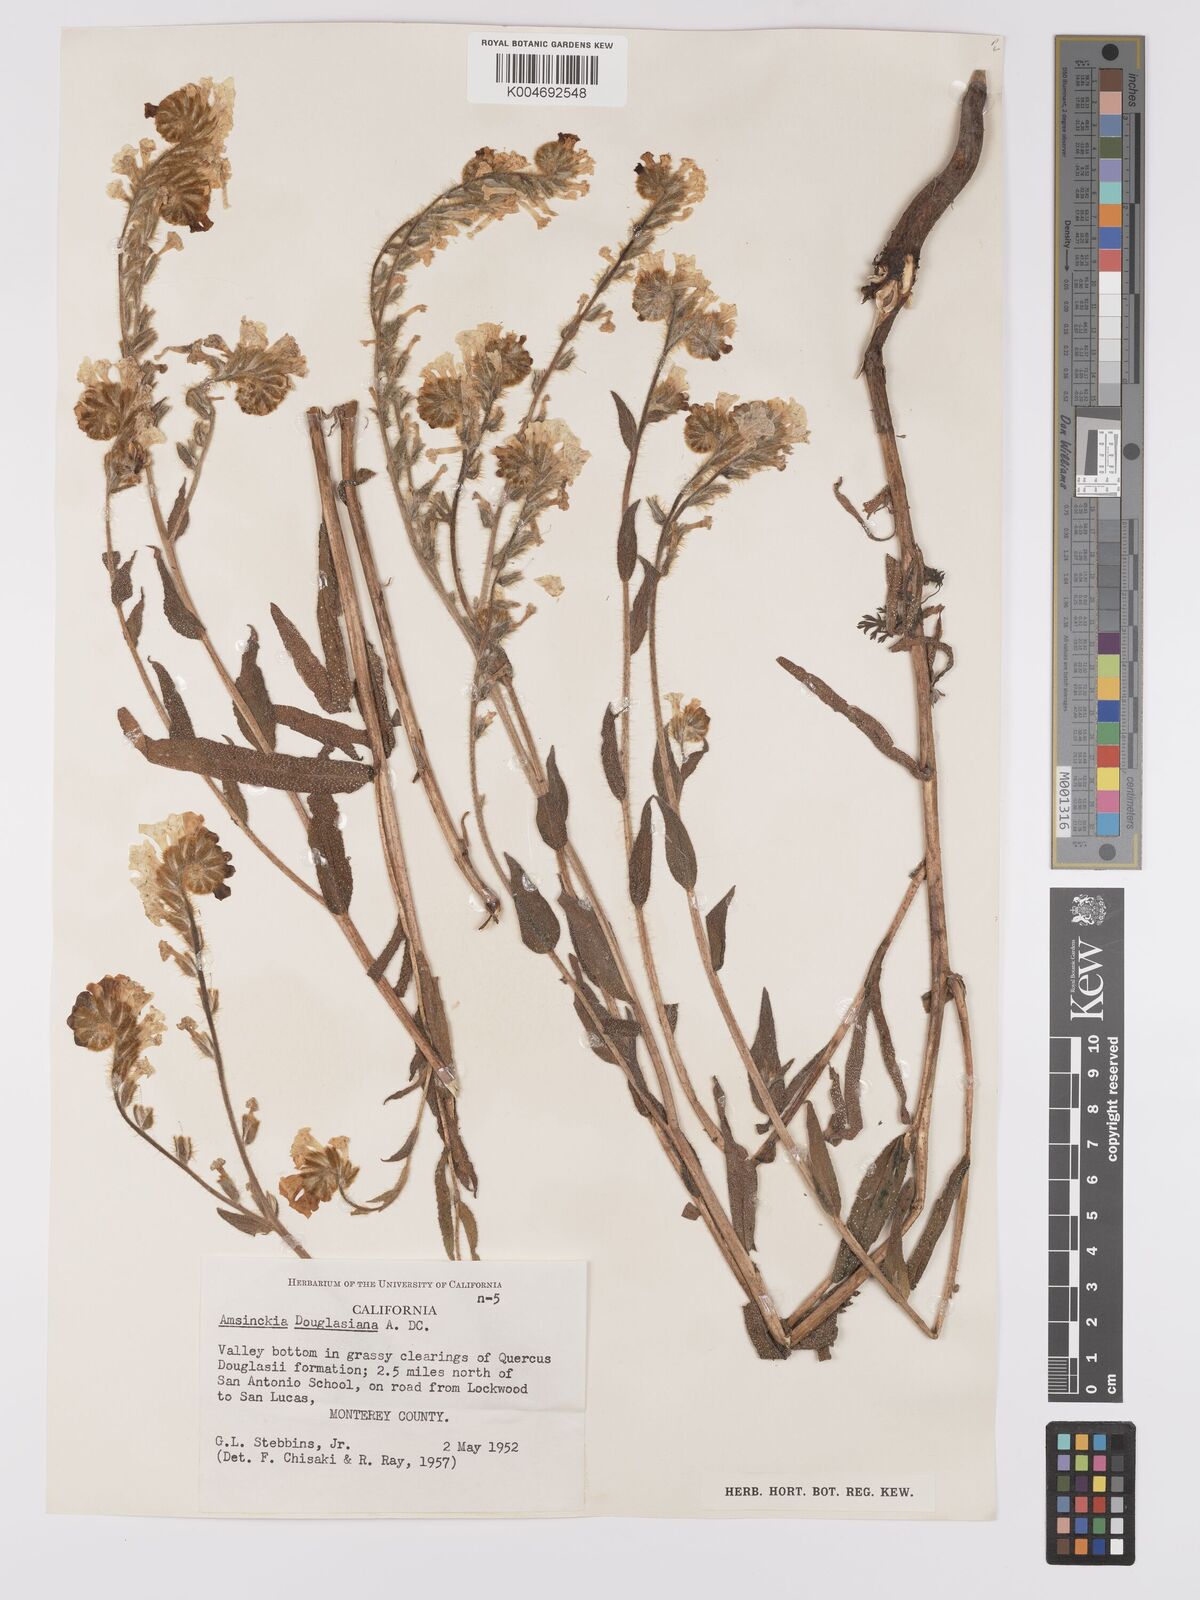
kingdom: Plantae
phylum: Tracheophyta
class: Magnoliopsida
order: Boraginales
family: Boraginaceae
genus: Amsinckia
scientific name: Amsinckia douglasiana
